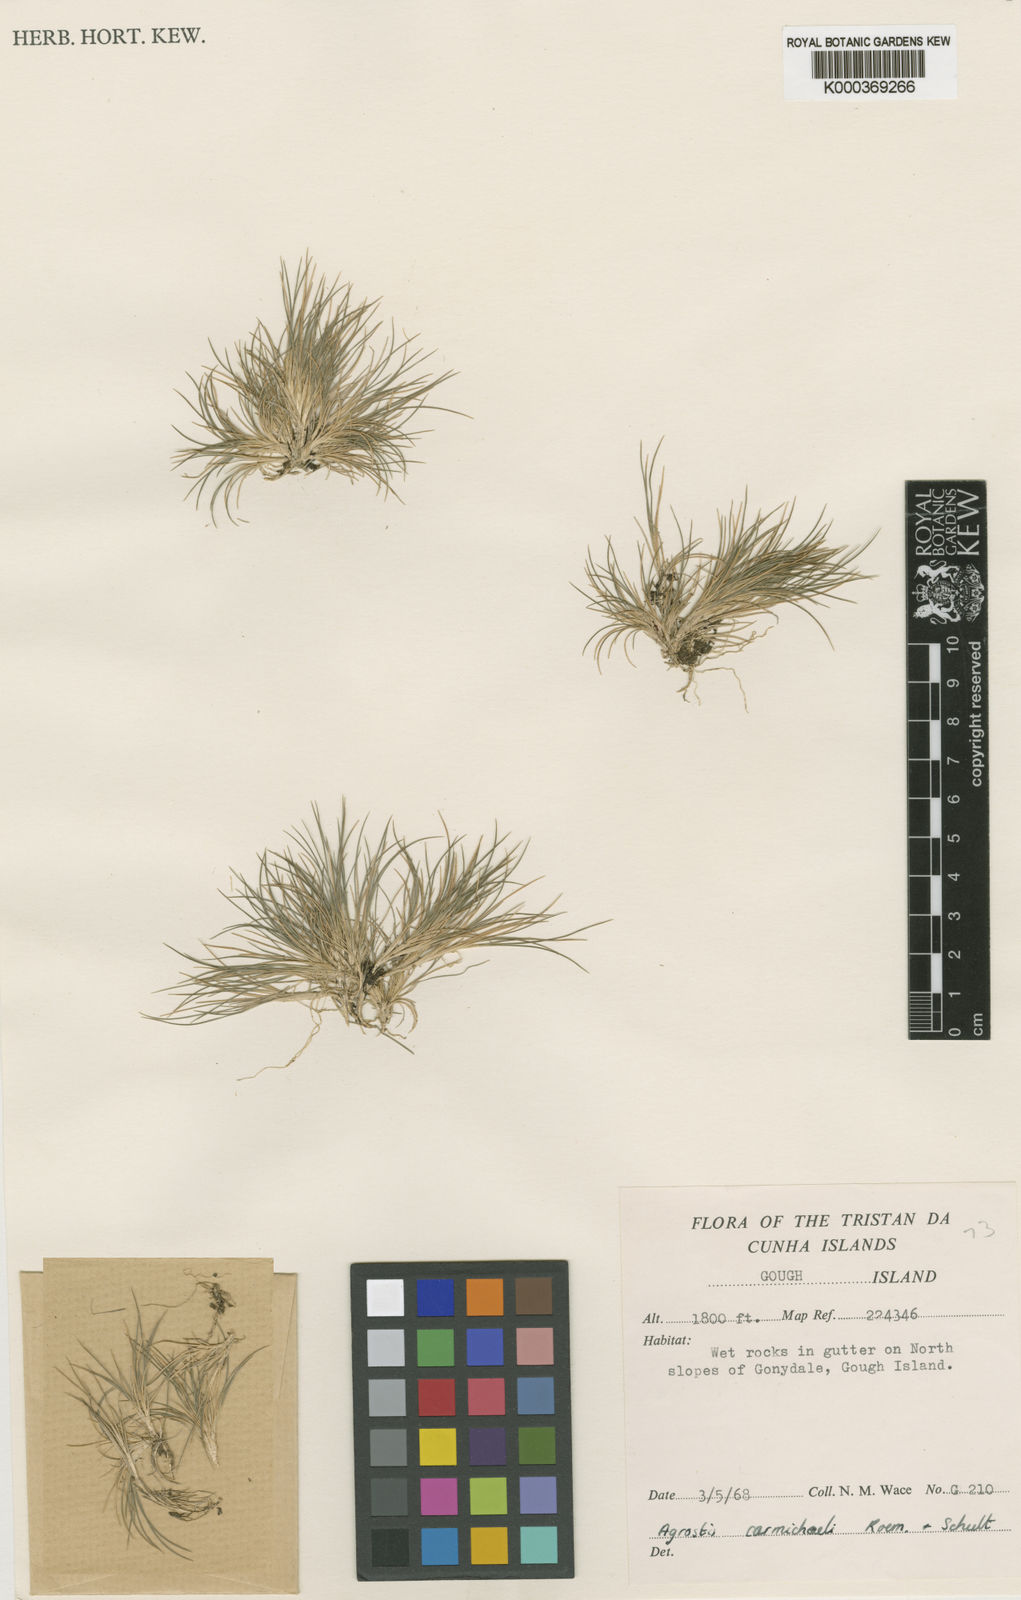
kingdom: Plantae
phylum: Tracheophyta
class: Liliopsida
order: Poales
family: Poaceae
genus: Agrostis
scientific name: Agrostis carmichaelii
